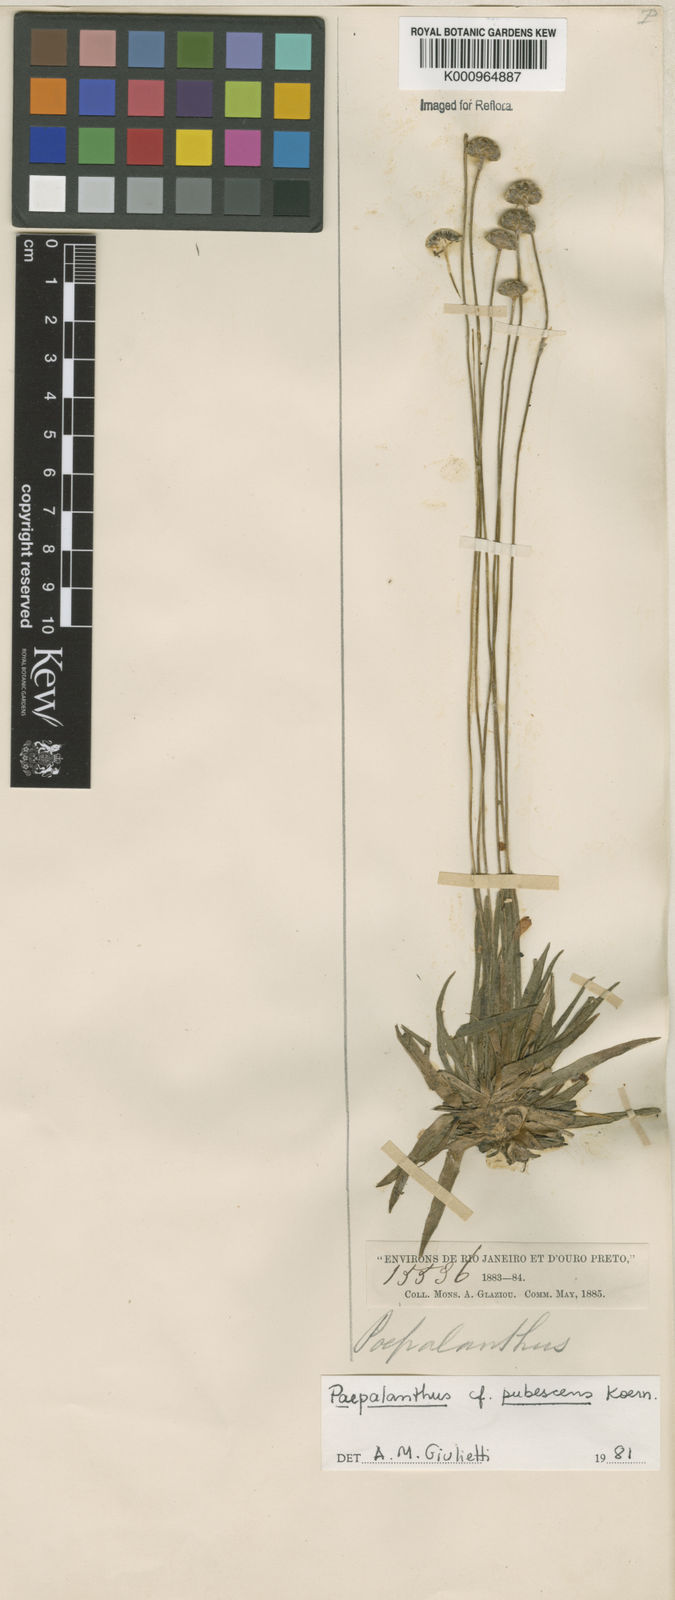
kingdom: Plantae
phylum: Tracheophyta
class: Liliopsida
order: Poales
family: Eriocaulaceae
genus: Paepalanthus
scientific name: Paepalanthus
